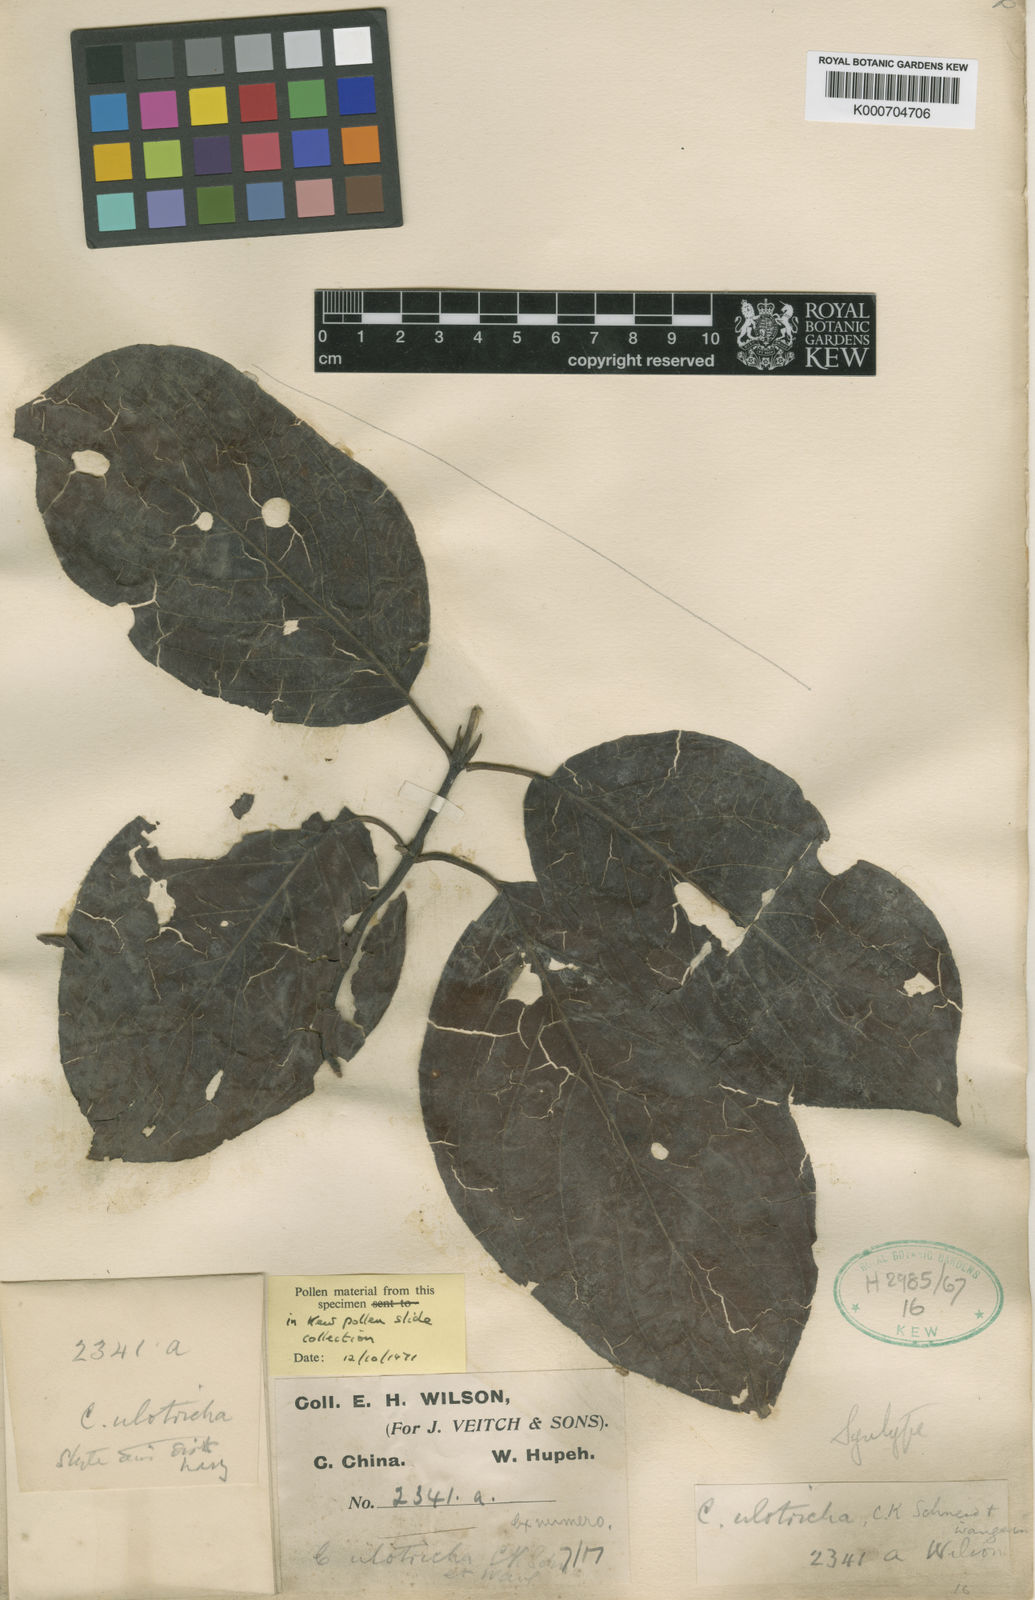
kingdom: Plantae
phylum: Tracheophyta
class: Magnoliopsida
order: Cornales
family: Cornaceae
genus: Cornus
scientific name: Cornus ulotricha
